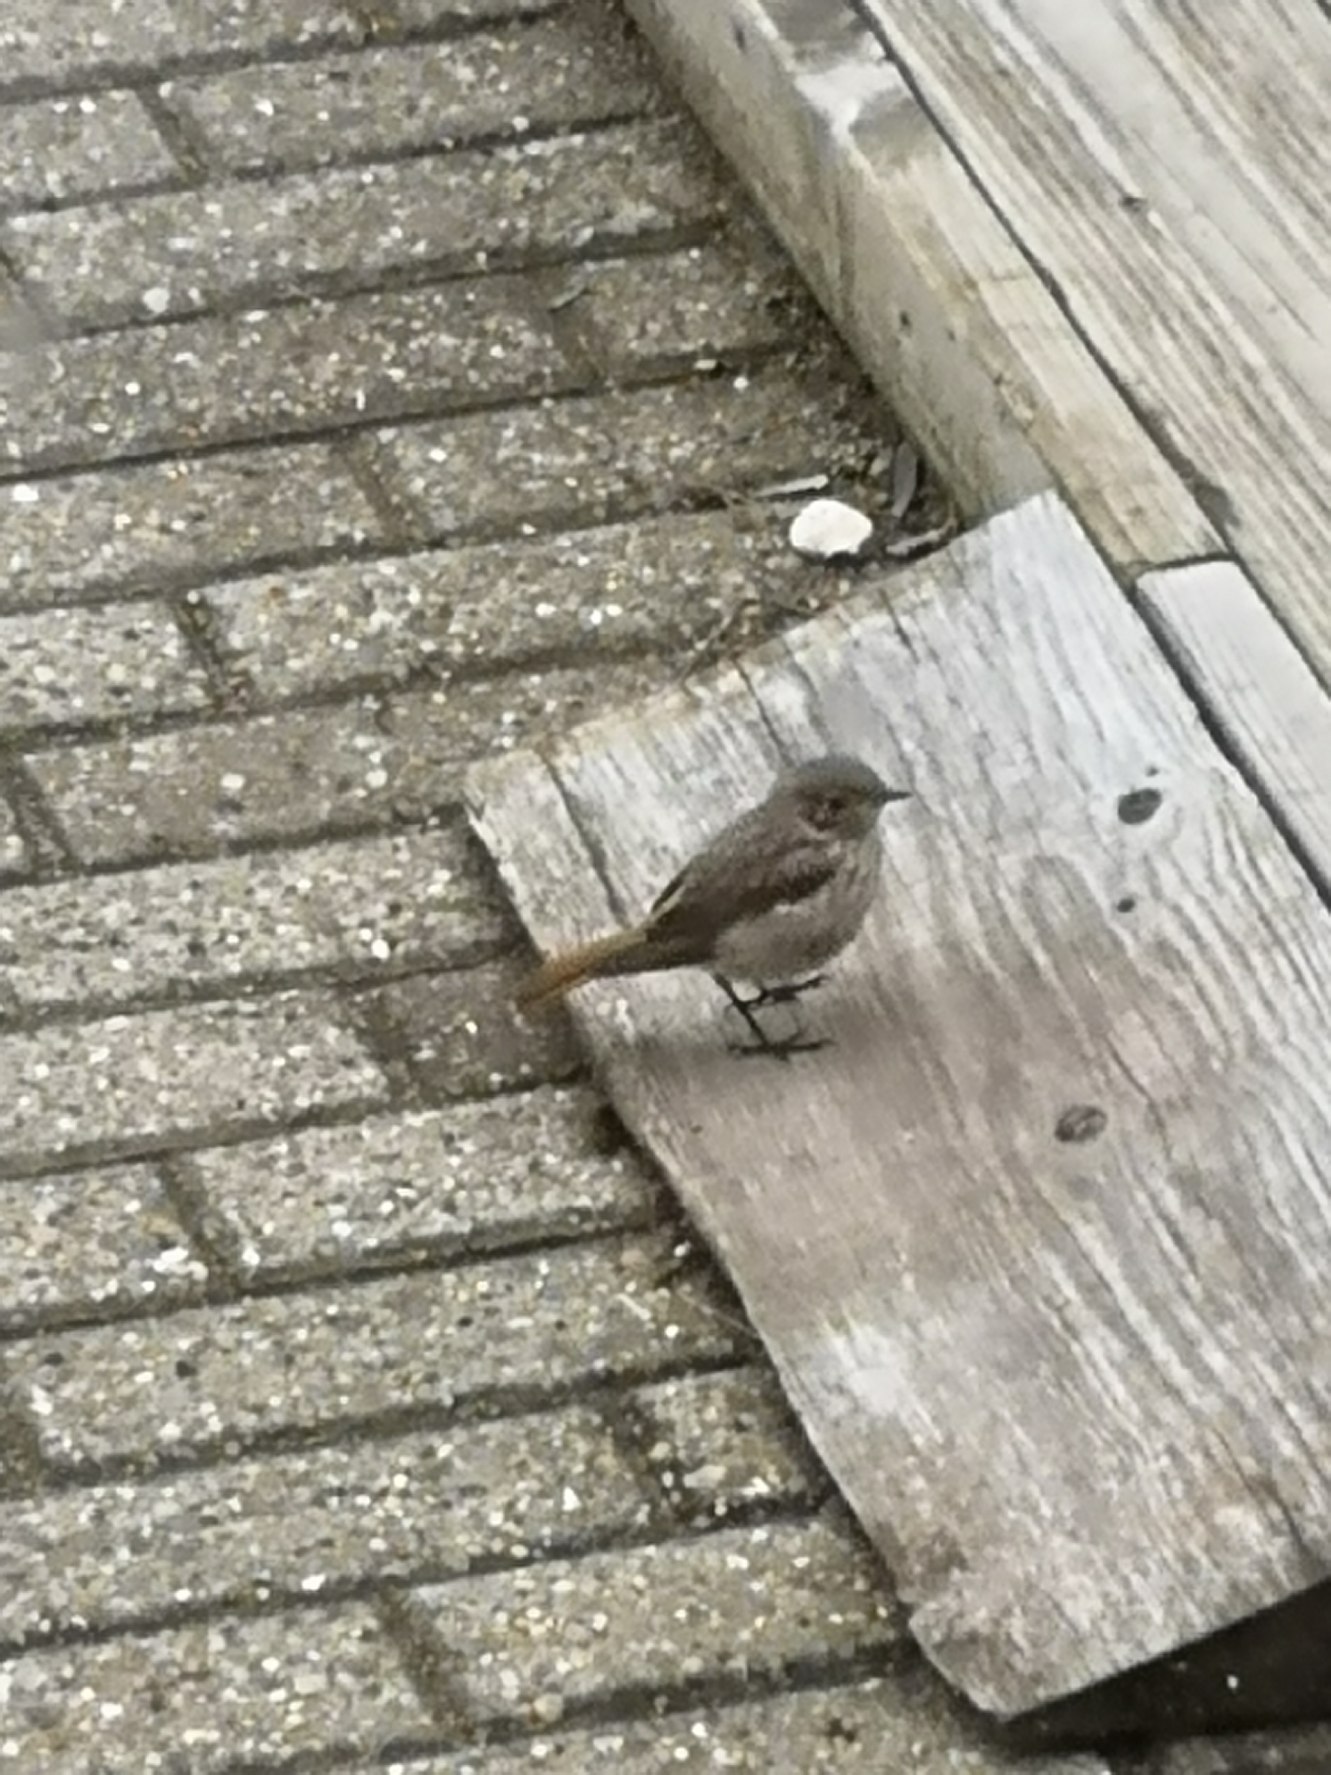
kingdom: Animalia
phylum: Chordata
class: Aves
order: Passeriformes
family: Muscicapidae
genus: Phoenicurus
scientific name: Phoenicurus ochruros
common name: Husrødstjert
